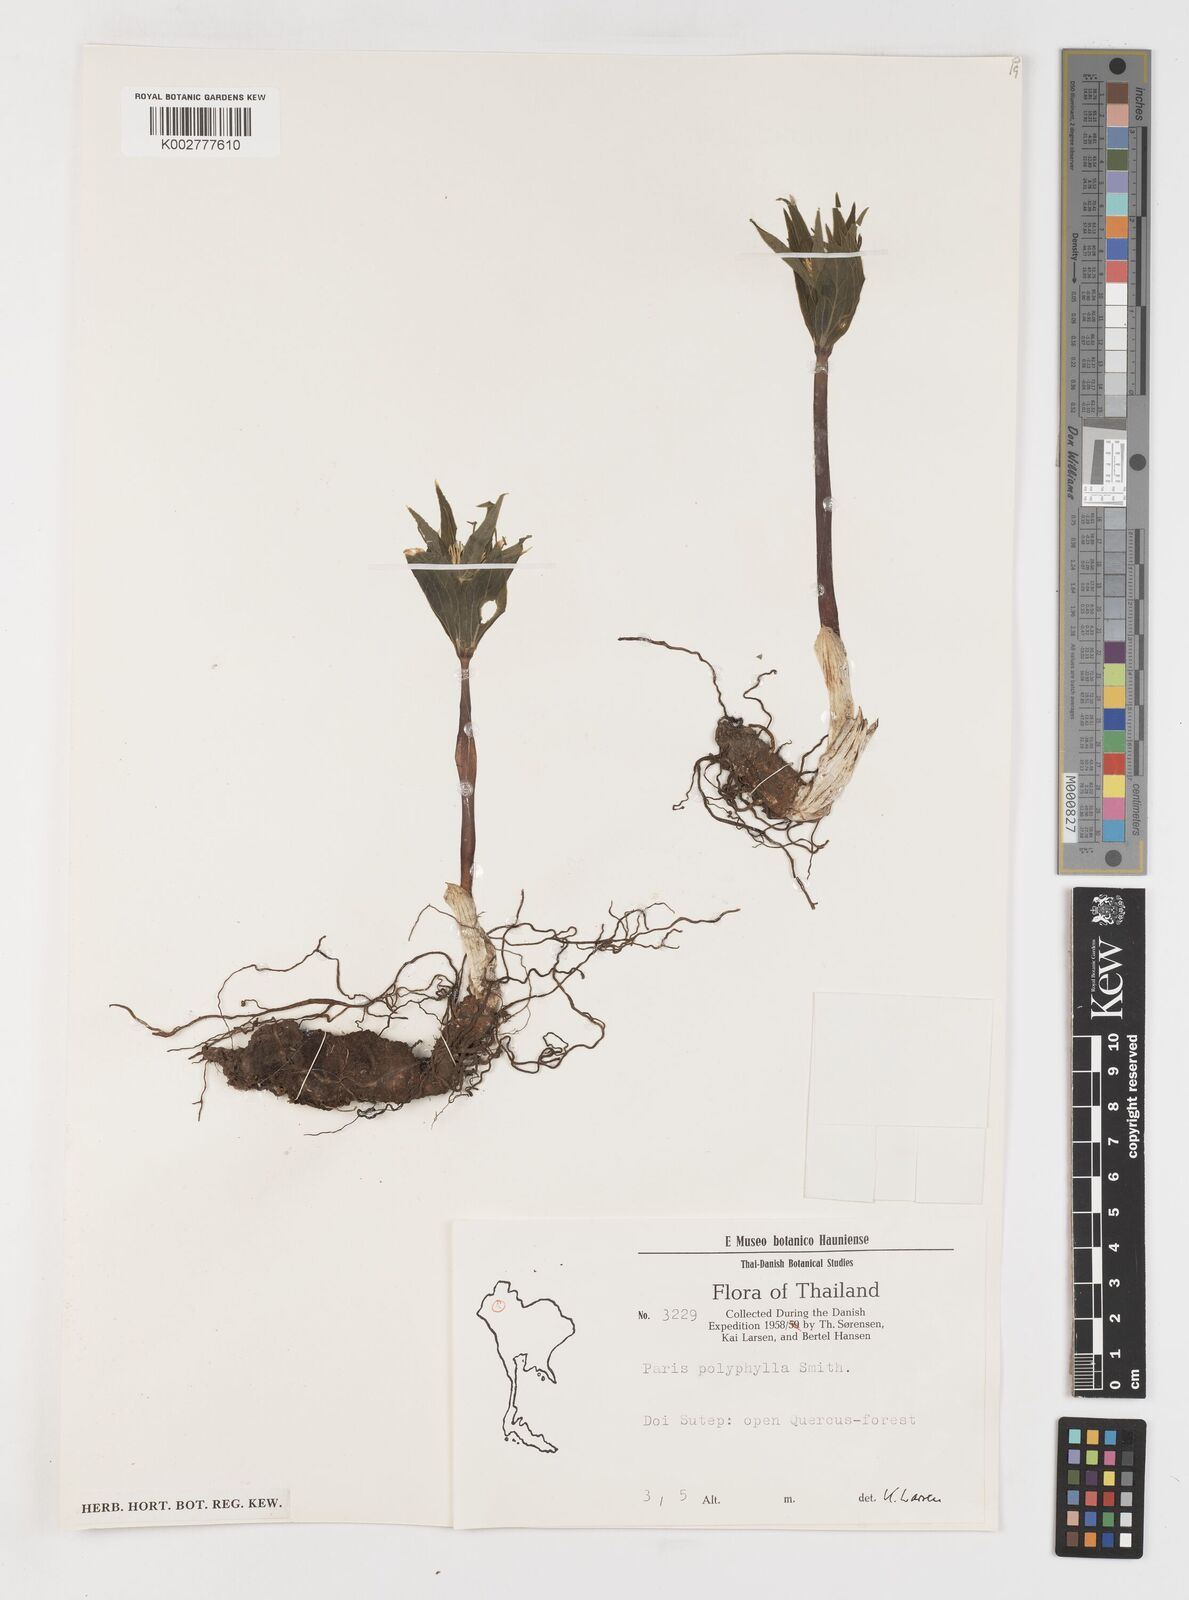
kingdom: Plantae
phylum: Tracheophyta
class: Liliopsida
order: Liliales
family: Melanthiaceae
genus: Paris
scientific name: Paris polyphylla
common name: Love apple
